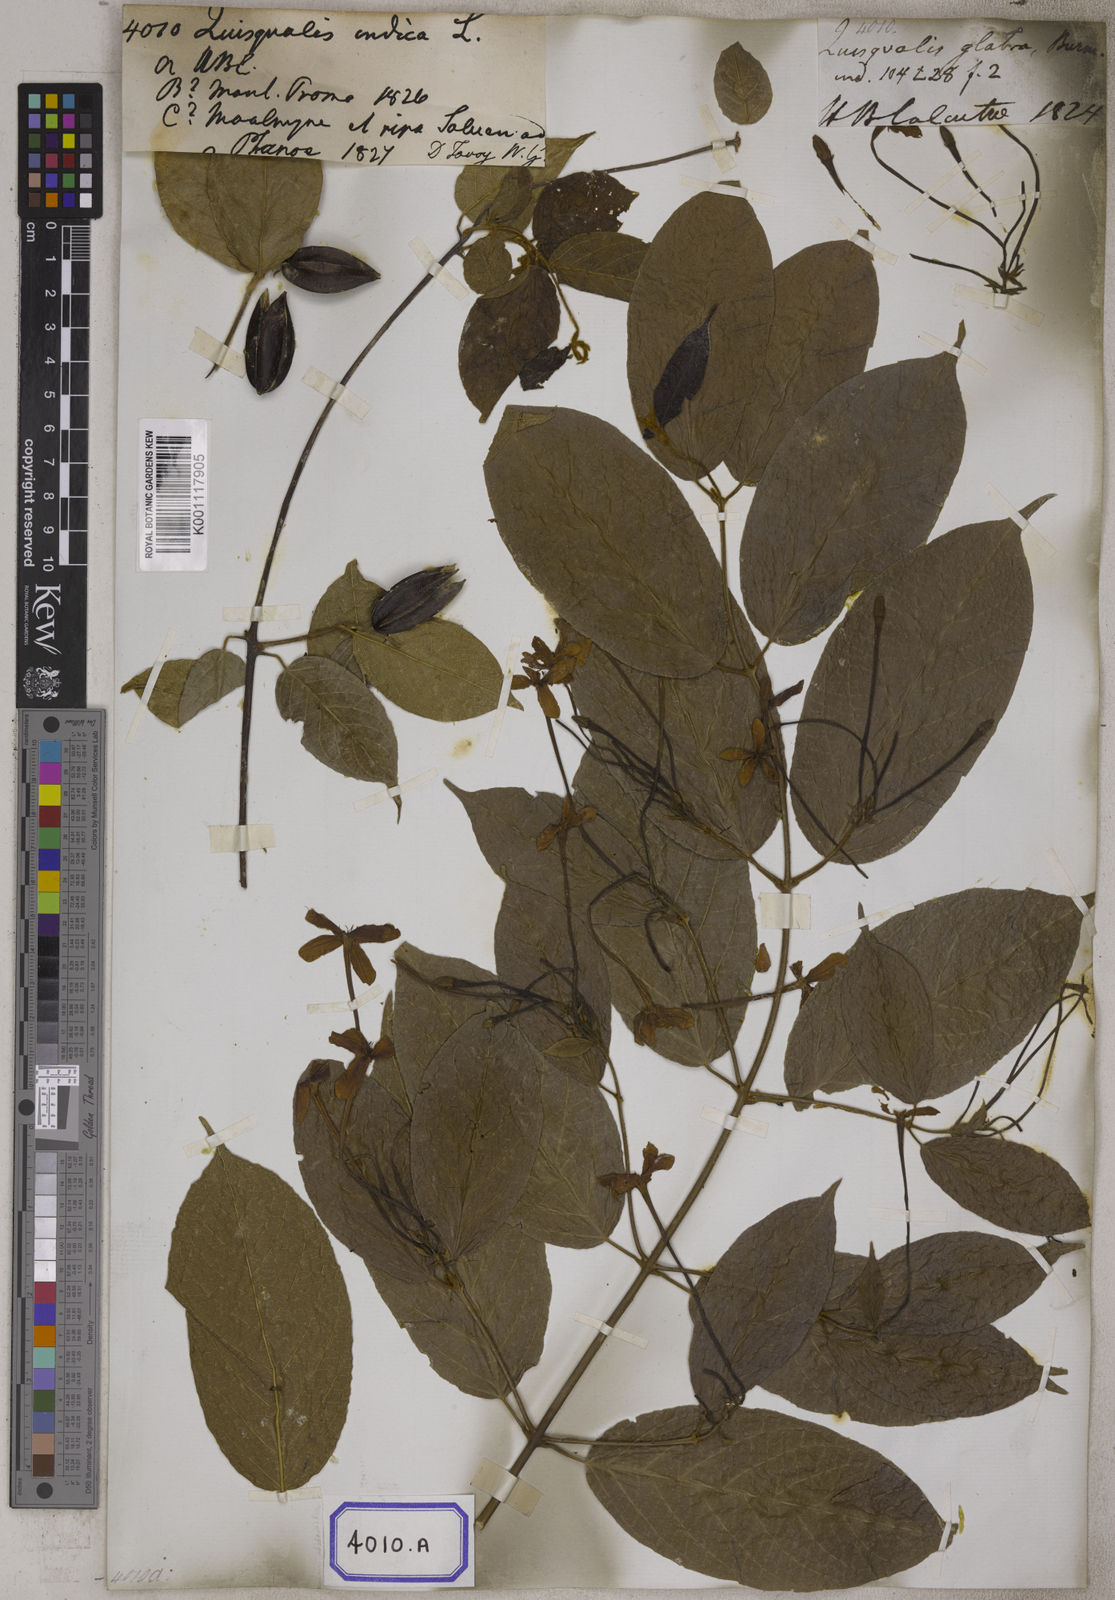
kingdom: Plantae
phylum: Tracheophyta
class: Magnoliopsida
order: Myrtales
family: Combretaceae
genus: Combretum
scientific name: Combretum indicum
